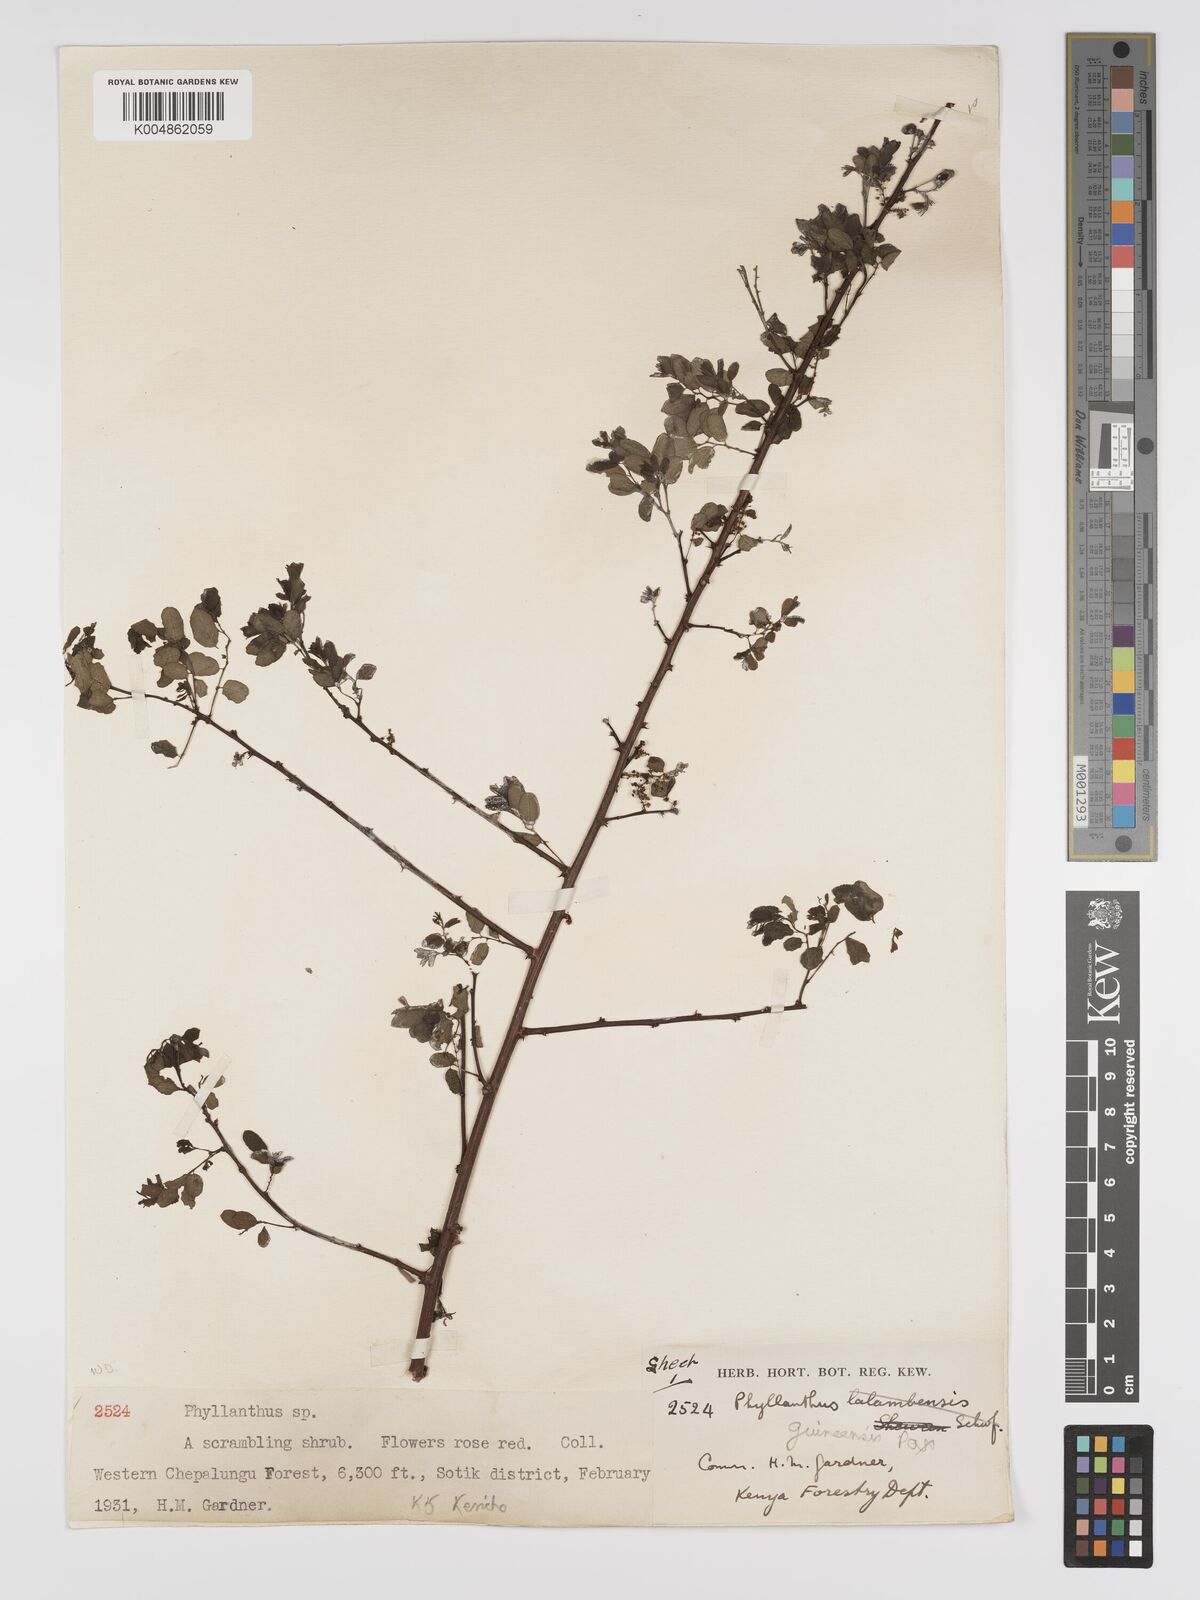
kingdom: Plantae
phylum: Tracheophyta
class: Magnoliopsida
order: Malpighiales
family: Phyllanthaceae
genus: Phyllanthus
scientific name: Phyllanthus ovalifolius
